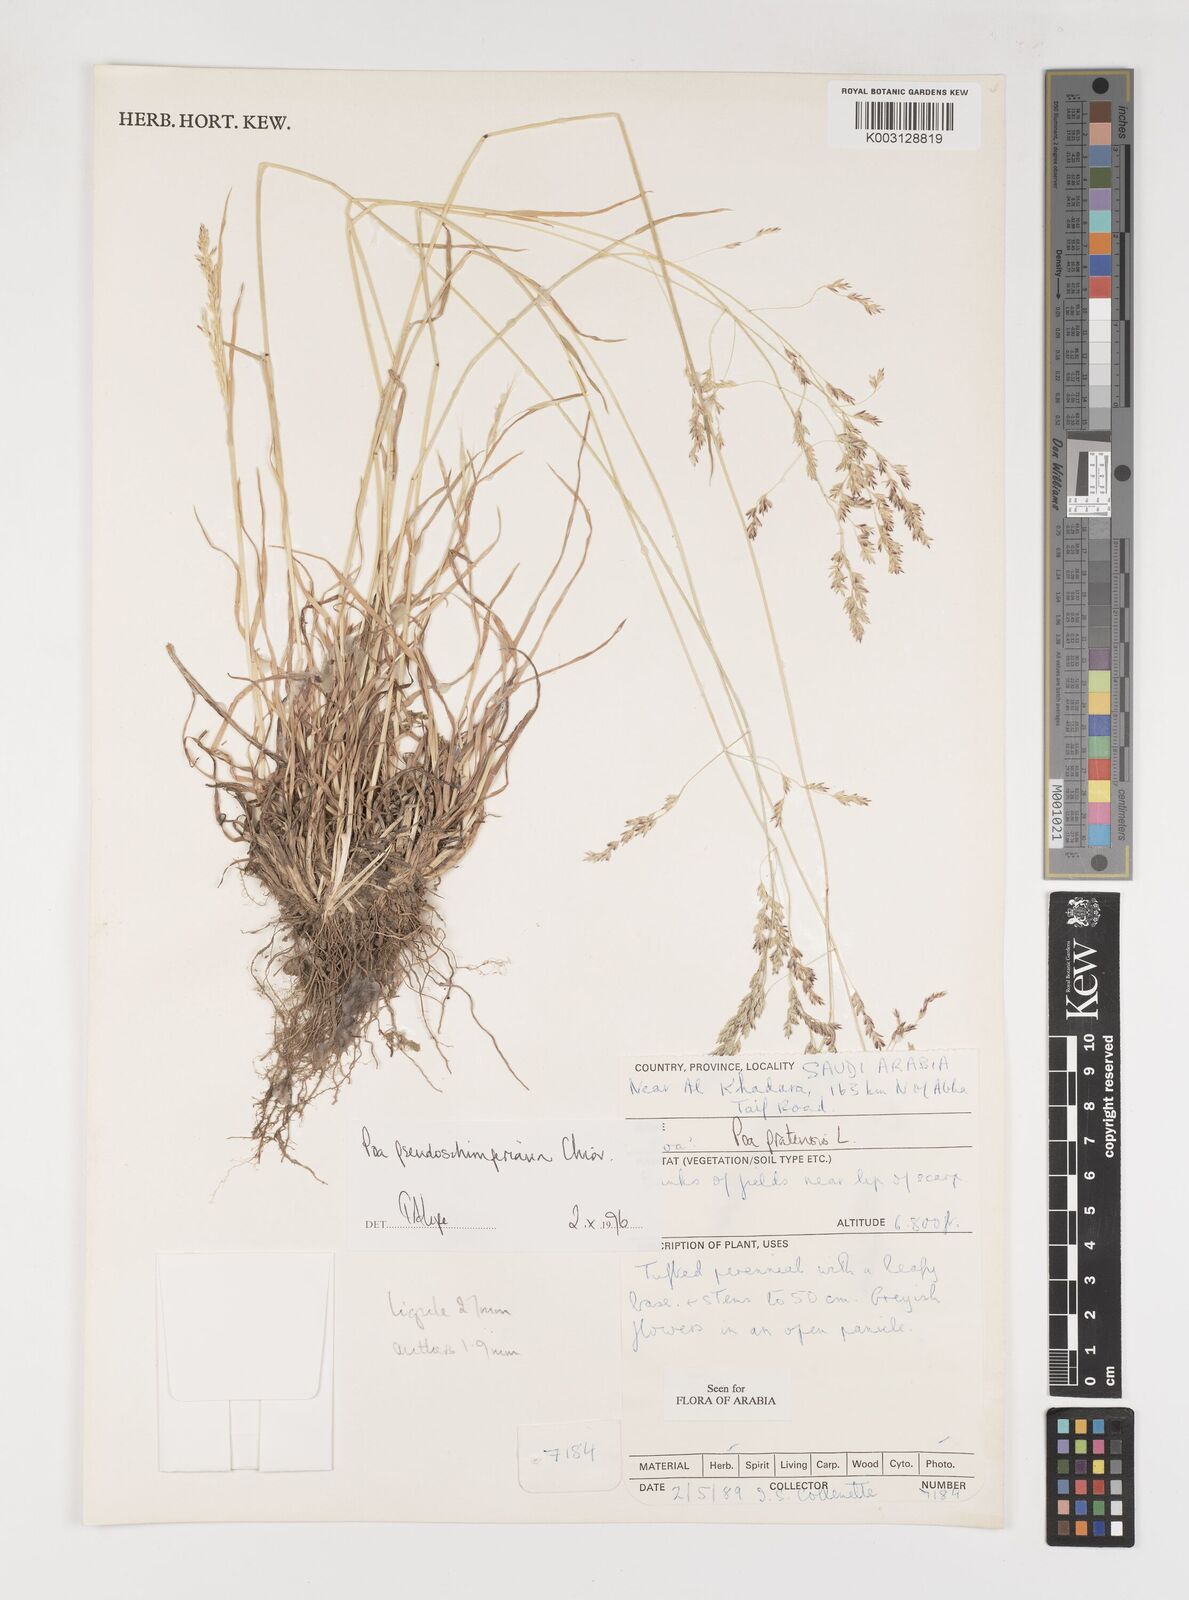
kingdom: Plantae
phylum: Tracheophyta
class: Liliopsida
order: Poales
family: Poaceae
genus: Poa
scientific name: Poa pseudoschimperiana
